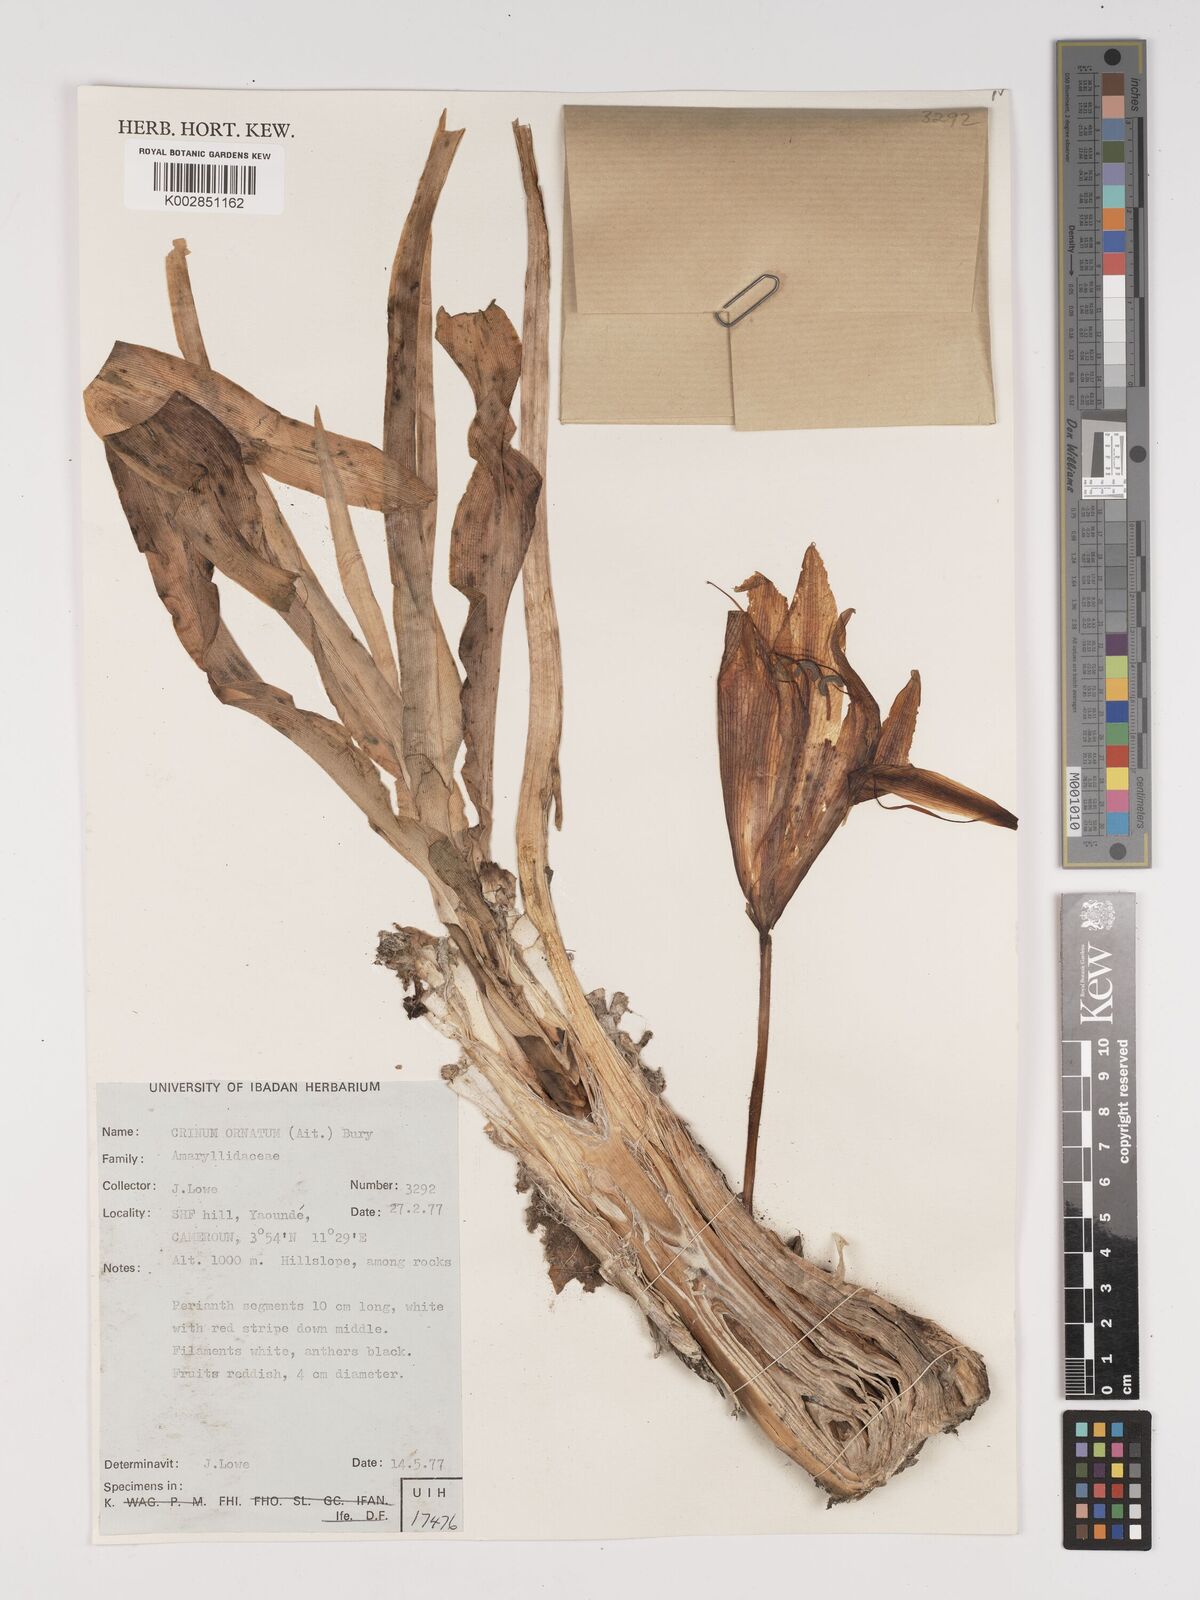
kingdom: Plantae
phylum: Tracheophyta
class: Liliopsida
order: Asparagales
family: Amaryllidaceae
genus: Crinum
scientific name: Crinum ornatum
